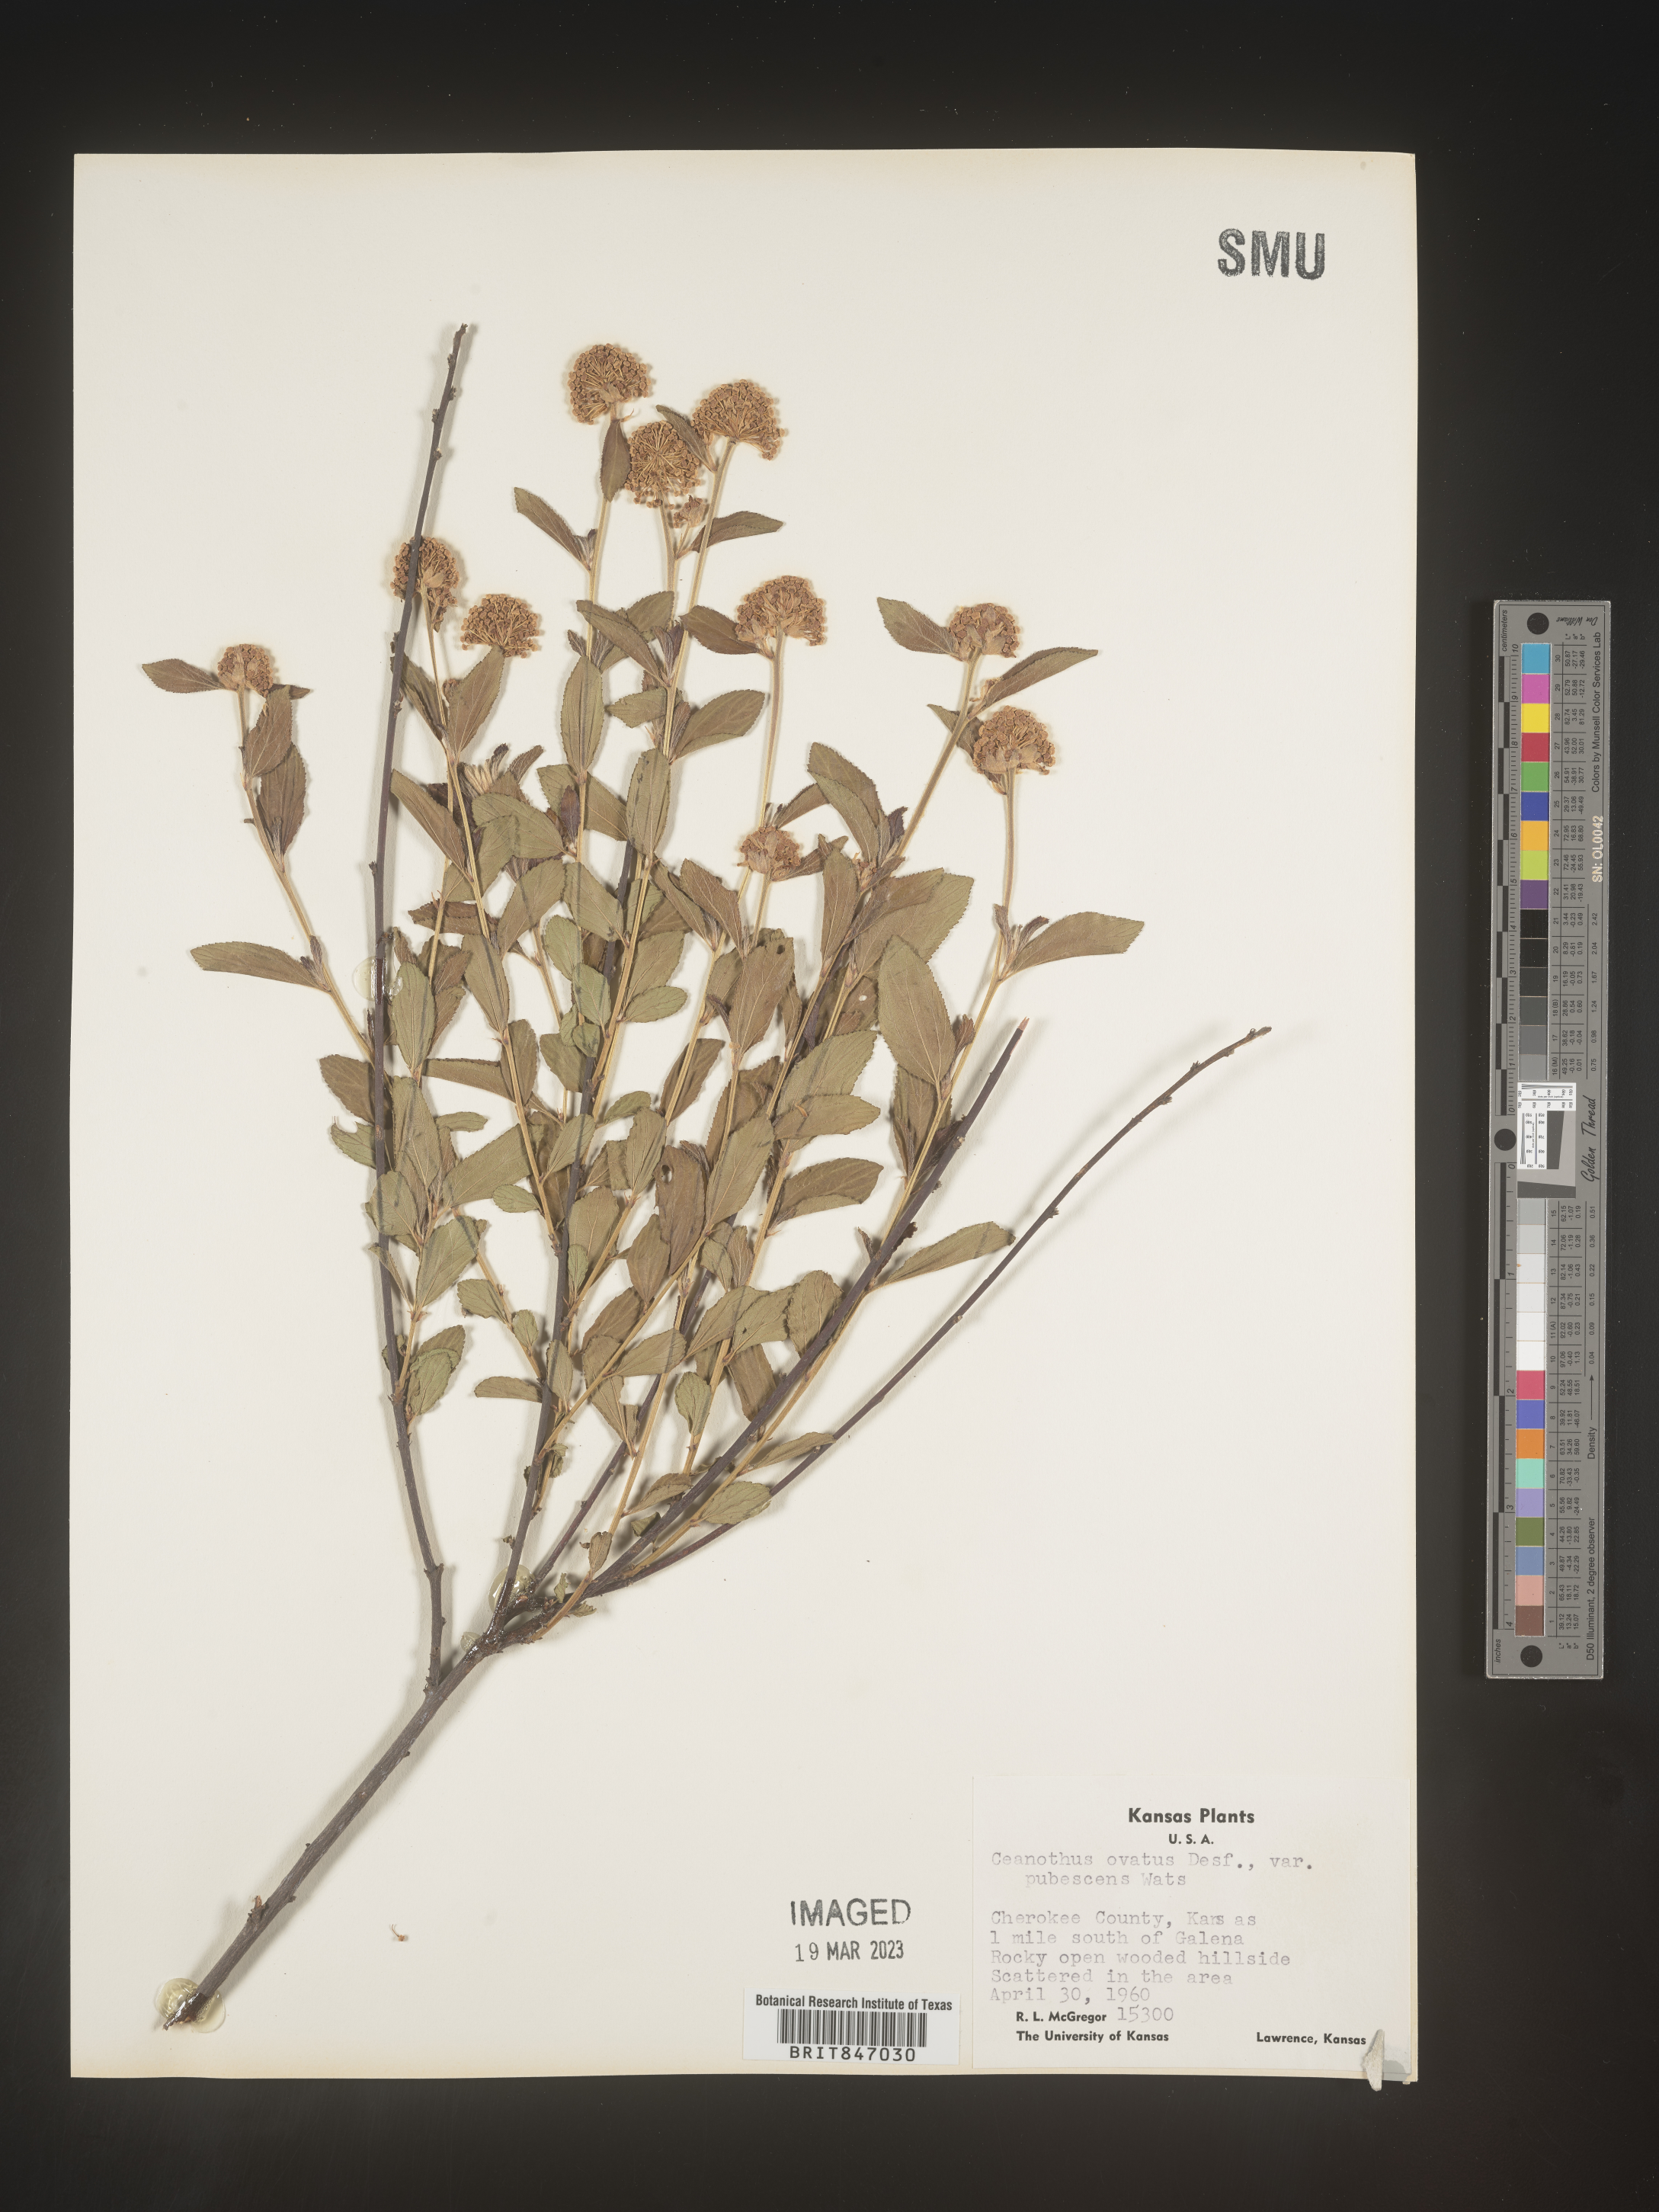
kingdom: Plantae
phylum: Tracheophyta
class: Magnoliopsida
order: Rosales
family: Rhamnaceae
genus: Ceanothus
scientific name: Ceanothus herbaceus
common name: Inland ceanothus
